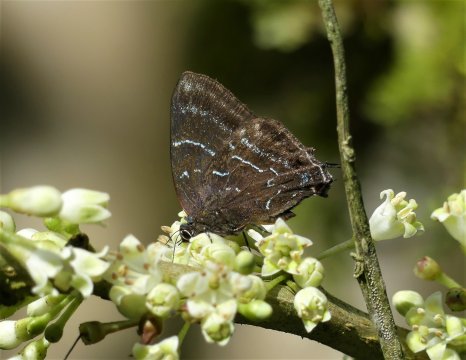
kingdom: Animalia
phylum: Arthropoda
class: Insecta
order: Lepidoptera
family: Lycaenidae
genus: Ocaria
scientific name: Ocaria
